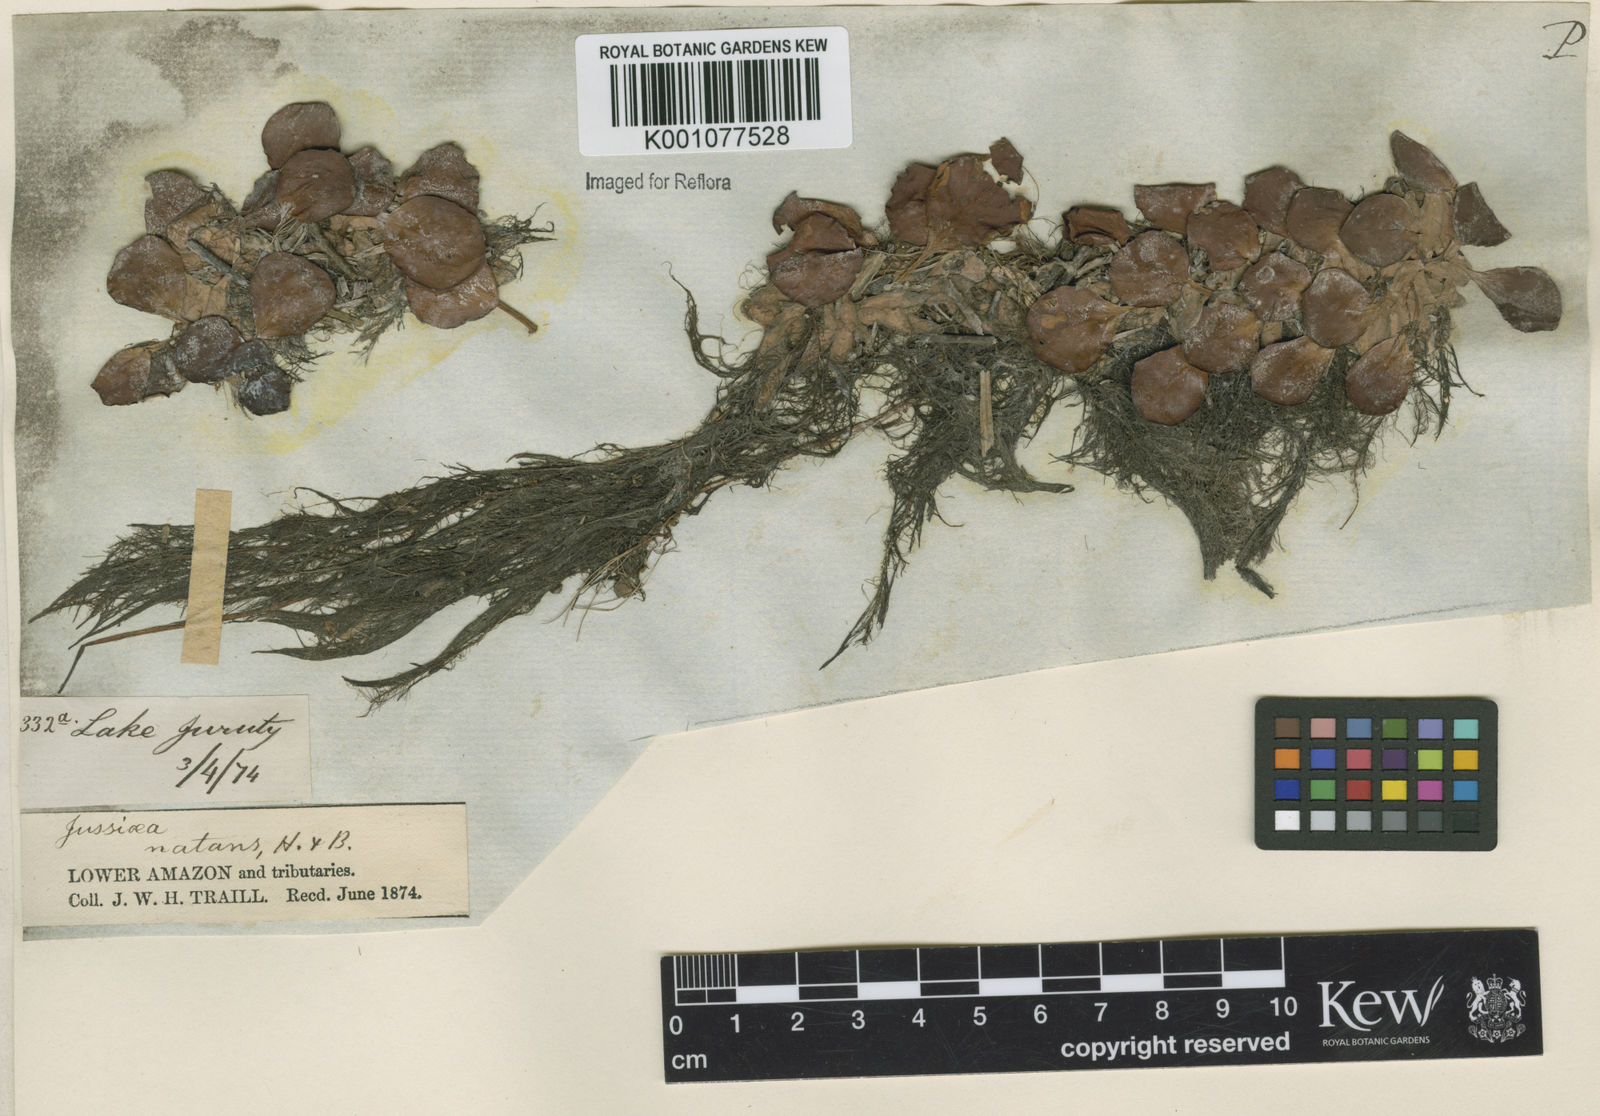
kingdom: Plantae
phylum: Tracheophyta
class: Magnoliopsida
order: Myrtales
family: Onagraceae
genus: Ludwigia
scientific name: Ludwigia helminthorrhiza
